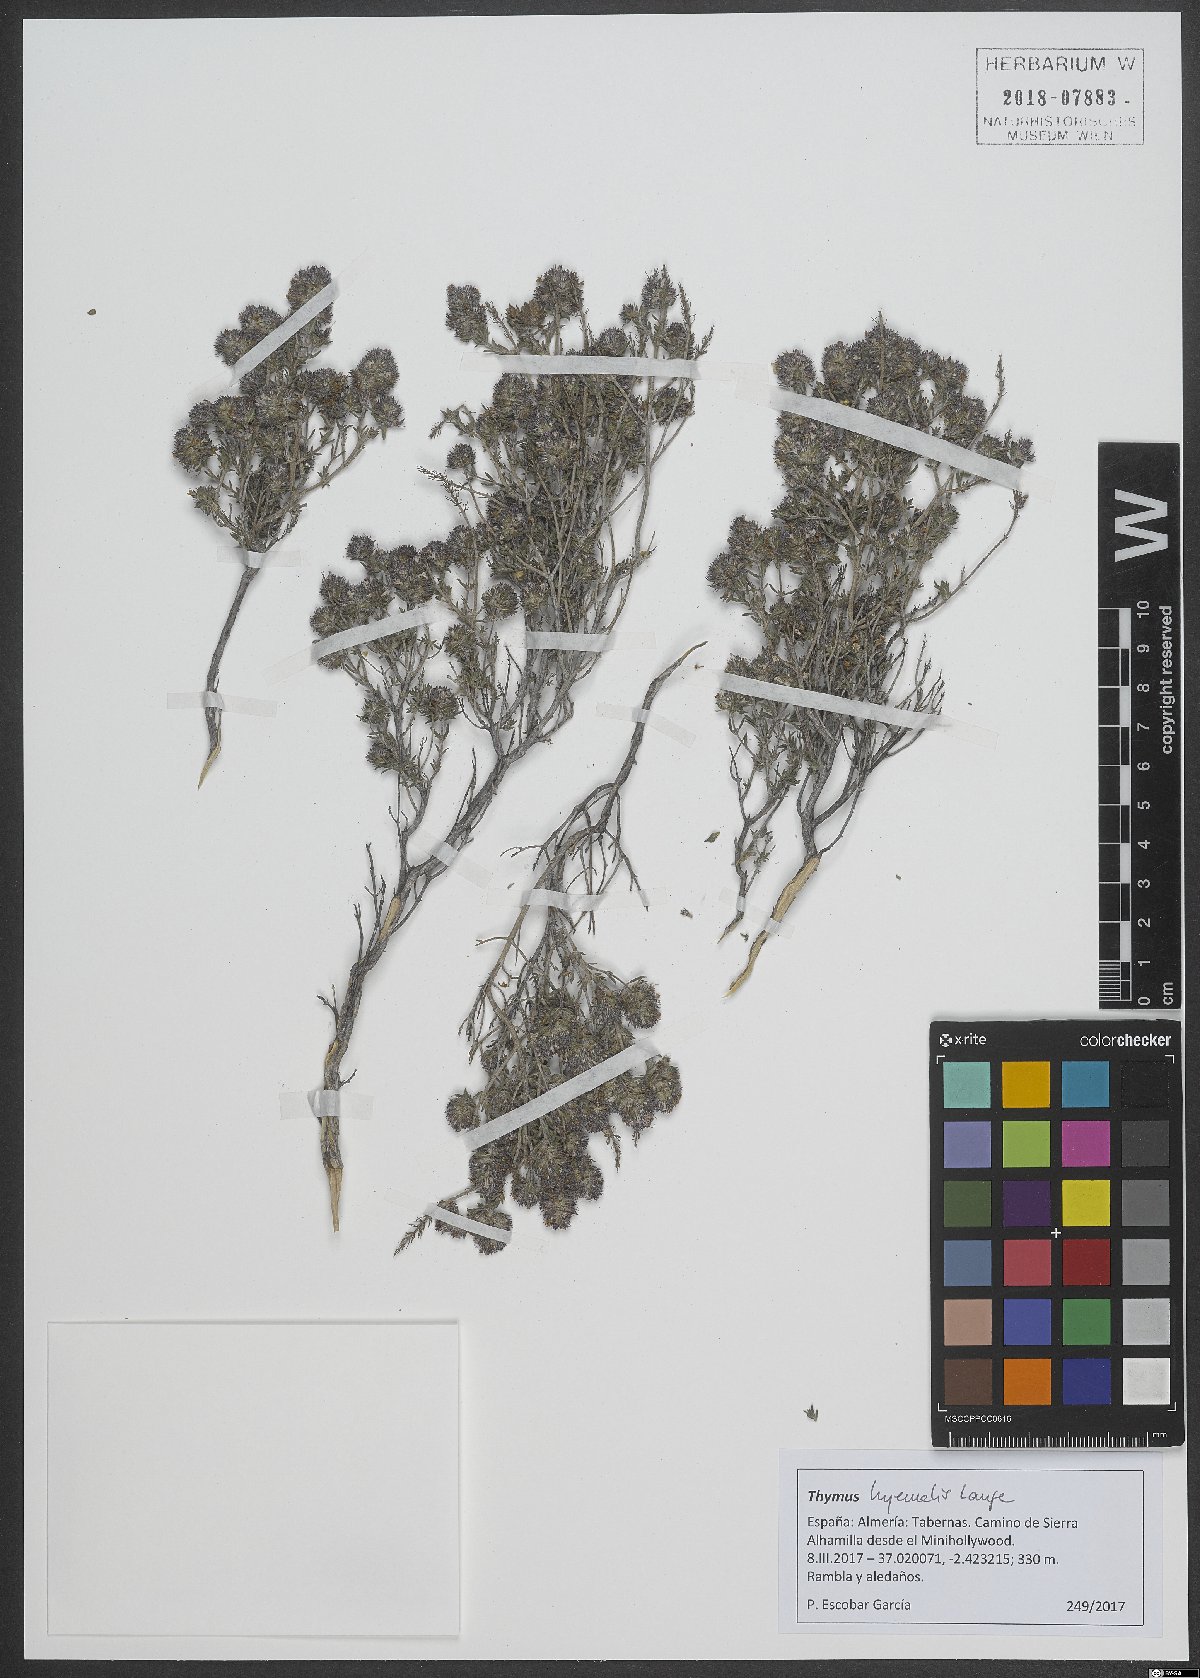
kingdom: Plantae
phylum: Tracheophyta
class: Magnoliopsida
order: Lamiales
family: Lamiaceae
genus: Thymus
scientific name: Thymus hyemalis
